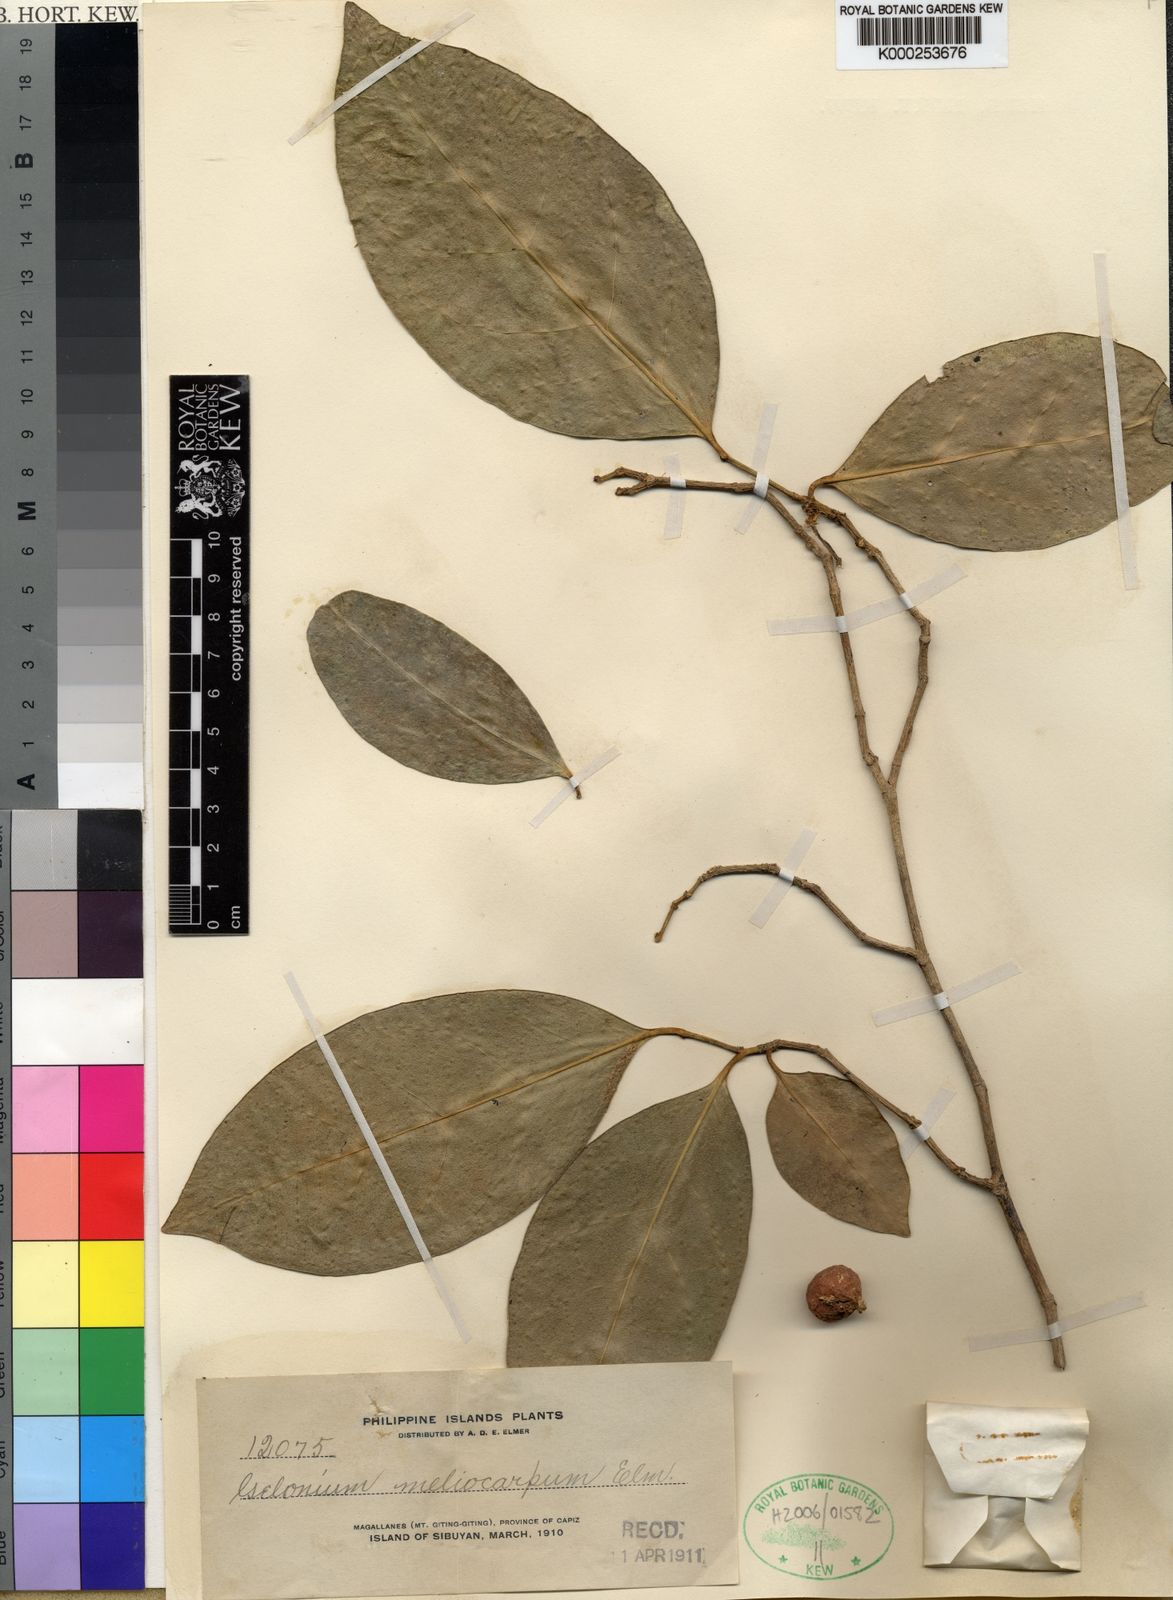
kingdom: Plantae
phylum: Tracheophyta
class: Magnoliopsida
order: Malpighiales
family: Euphorbiaceae
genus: Suregada
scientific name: Suregada glomerulata
